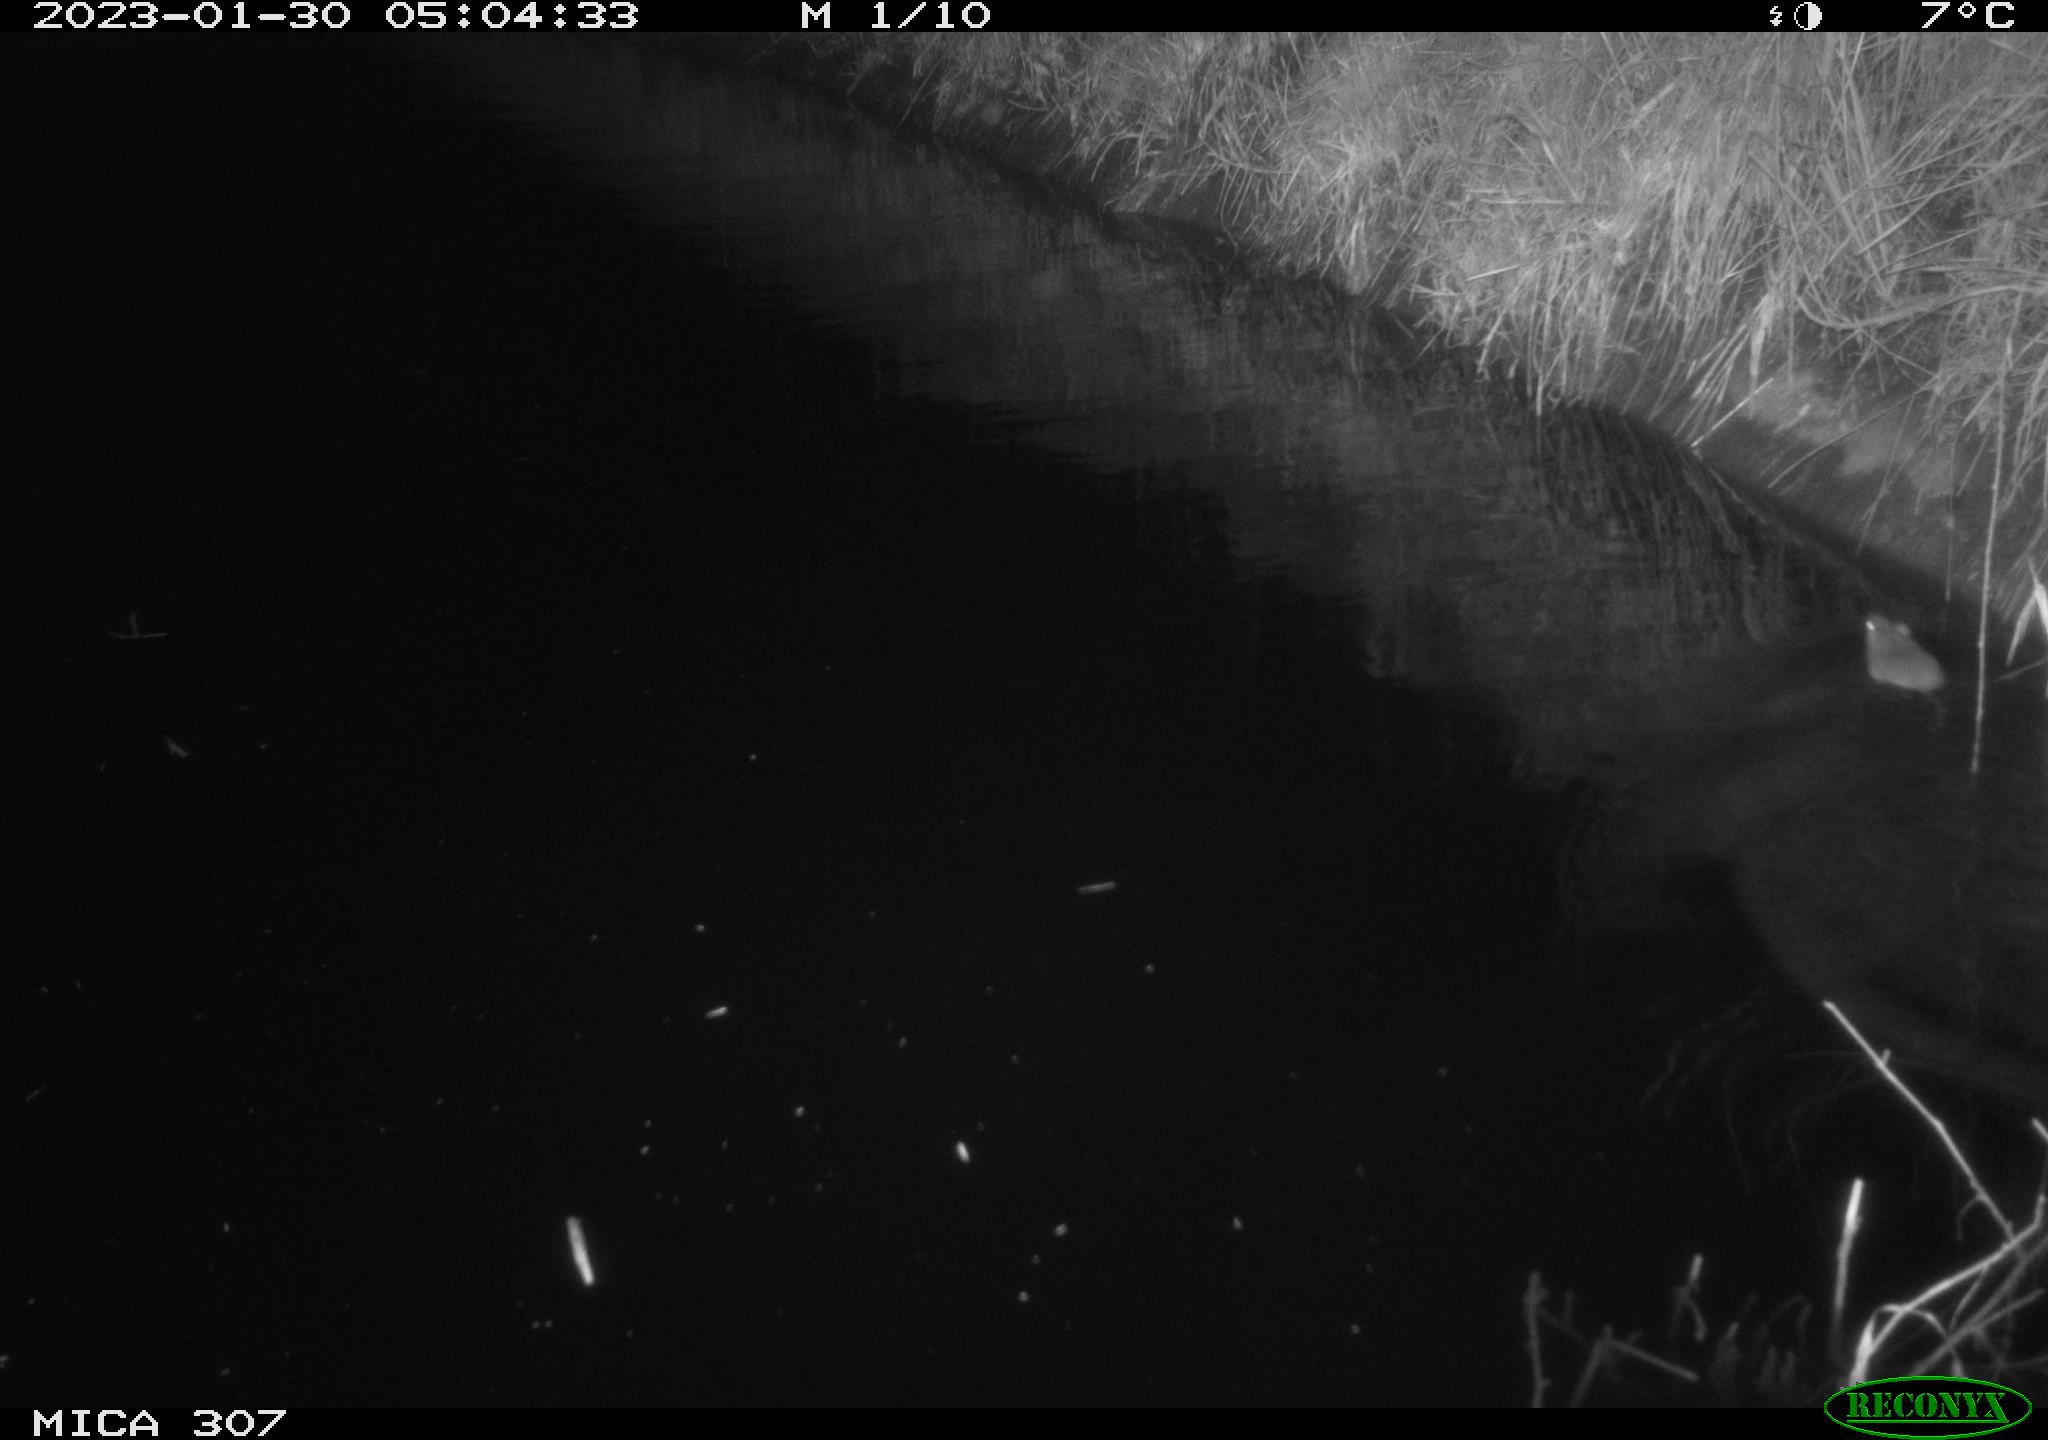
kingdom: Animalia
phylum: Chordata
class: Mammalia
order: Rodentia
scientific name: Rodentia
